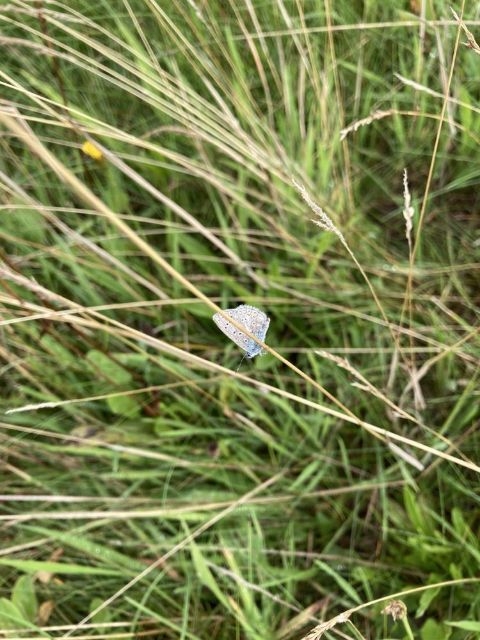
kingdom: Animalia
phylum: Arthropoda
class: Insecta
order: Lepidoptera
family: Lycaenidae
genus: Polyommatus
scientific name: Polyommatus icarus
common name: Almindelig blåfugl
